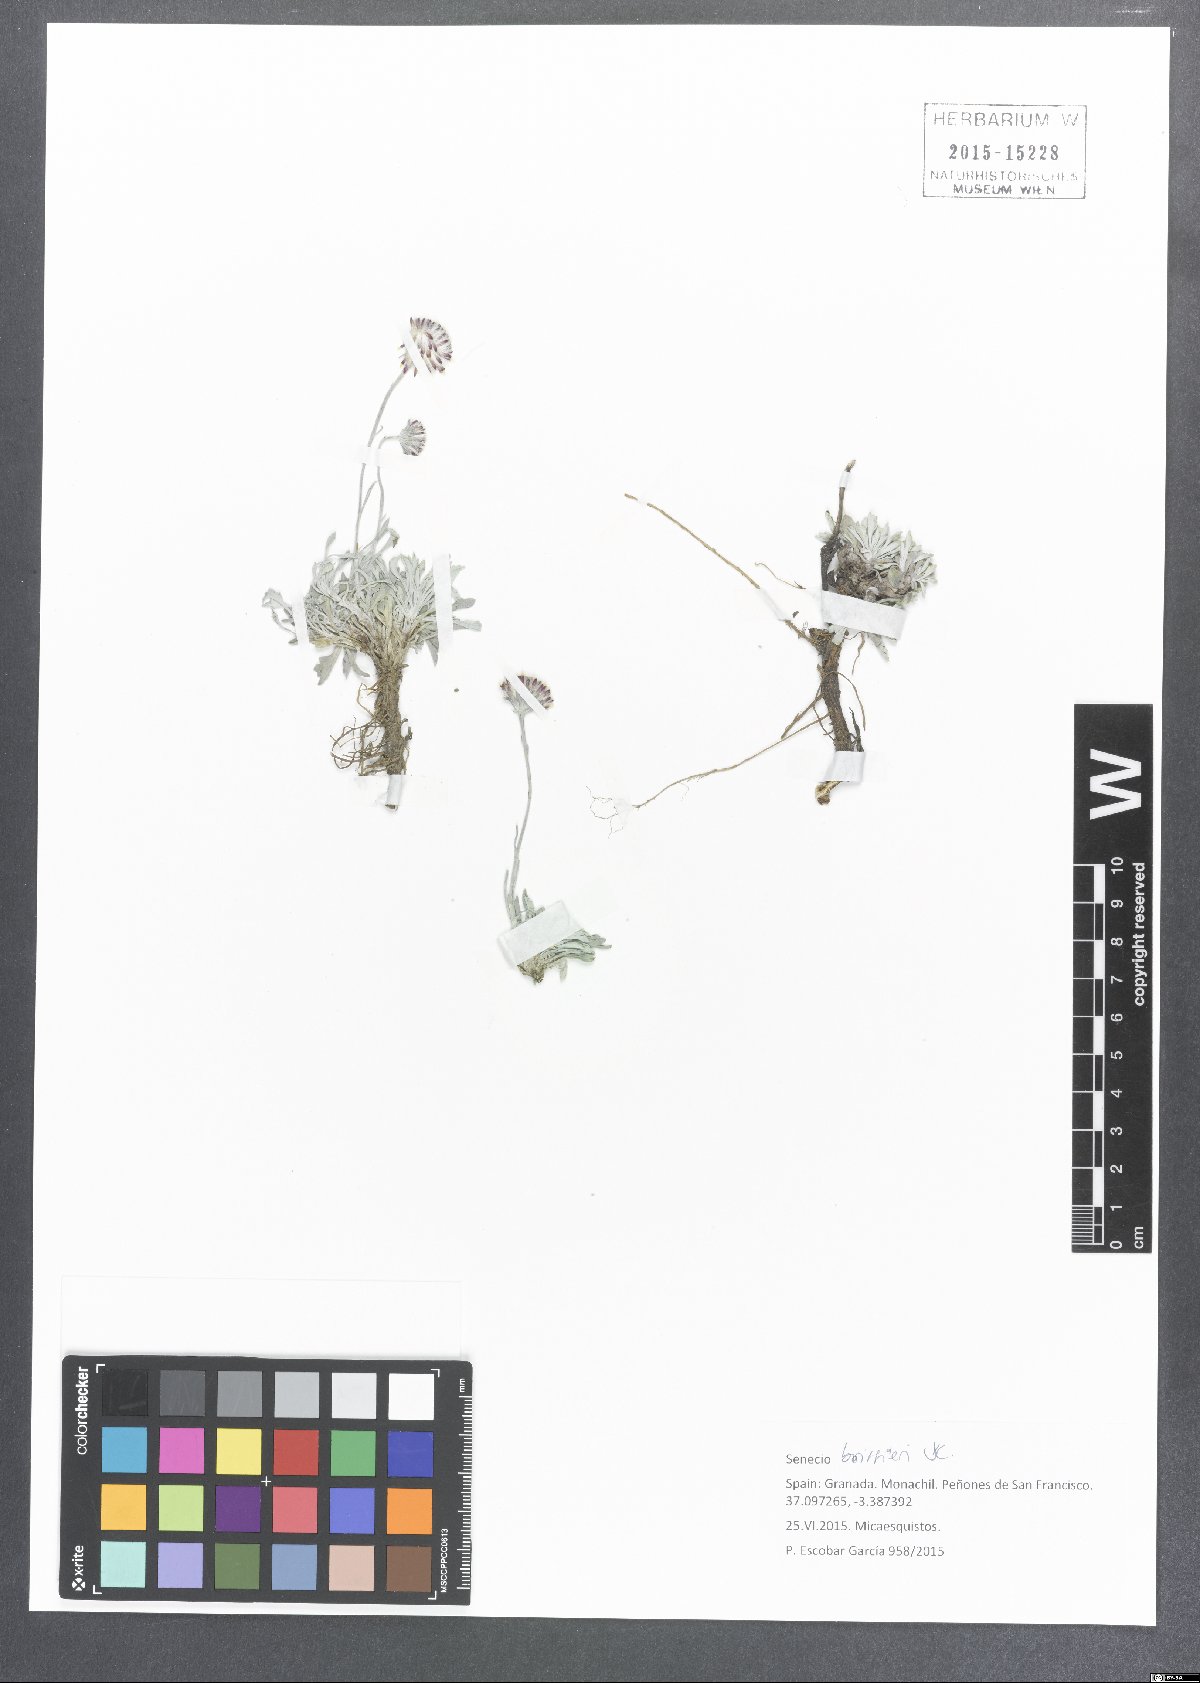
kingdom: Plantae
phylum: Tracheophyta
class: Magnoliopsida
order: Asterales
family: Asteraceae
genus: Jacobaea
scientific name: Jacobaea boissieri
